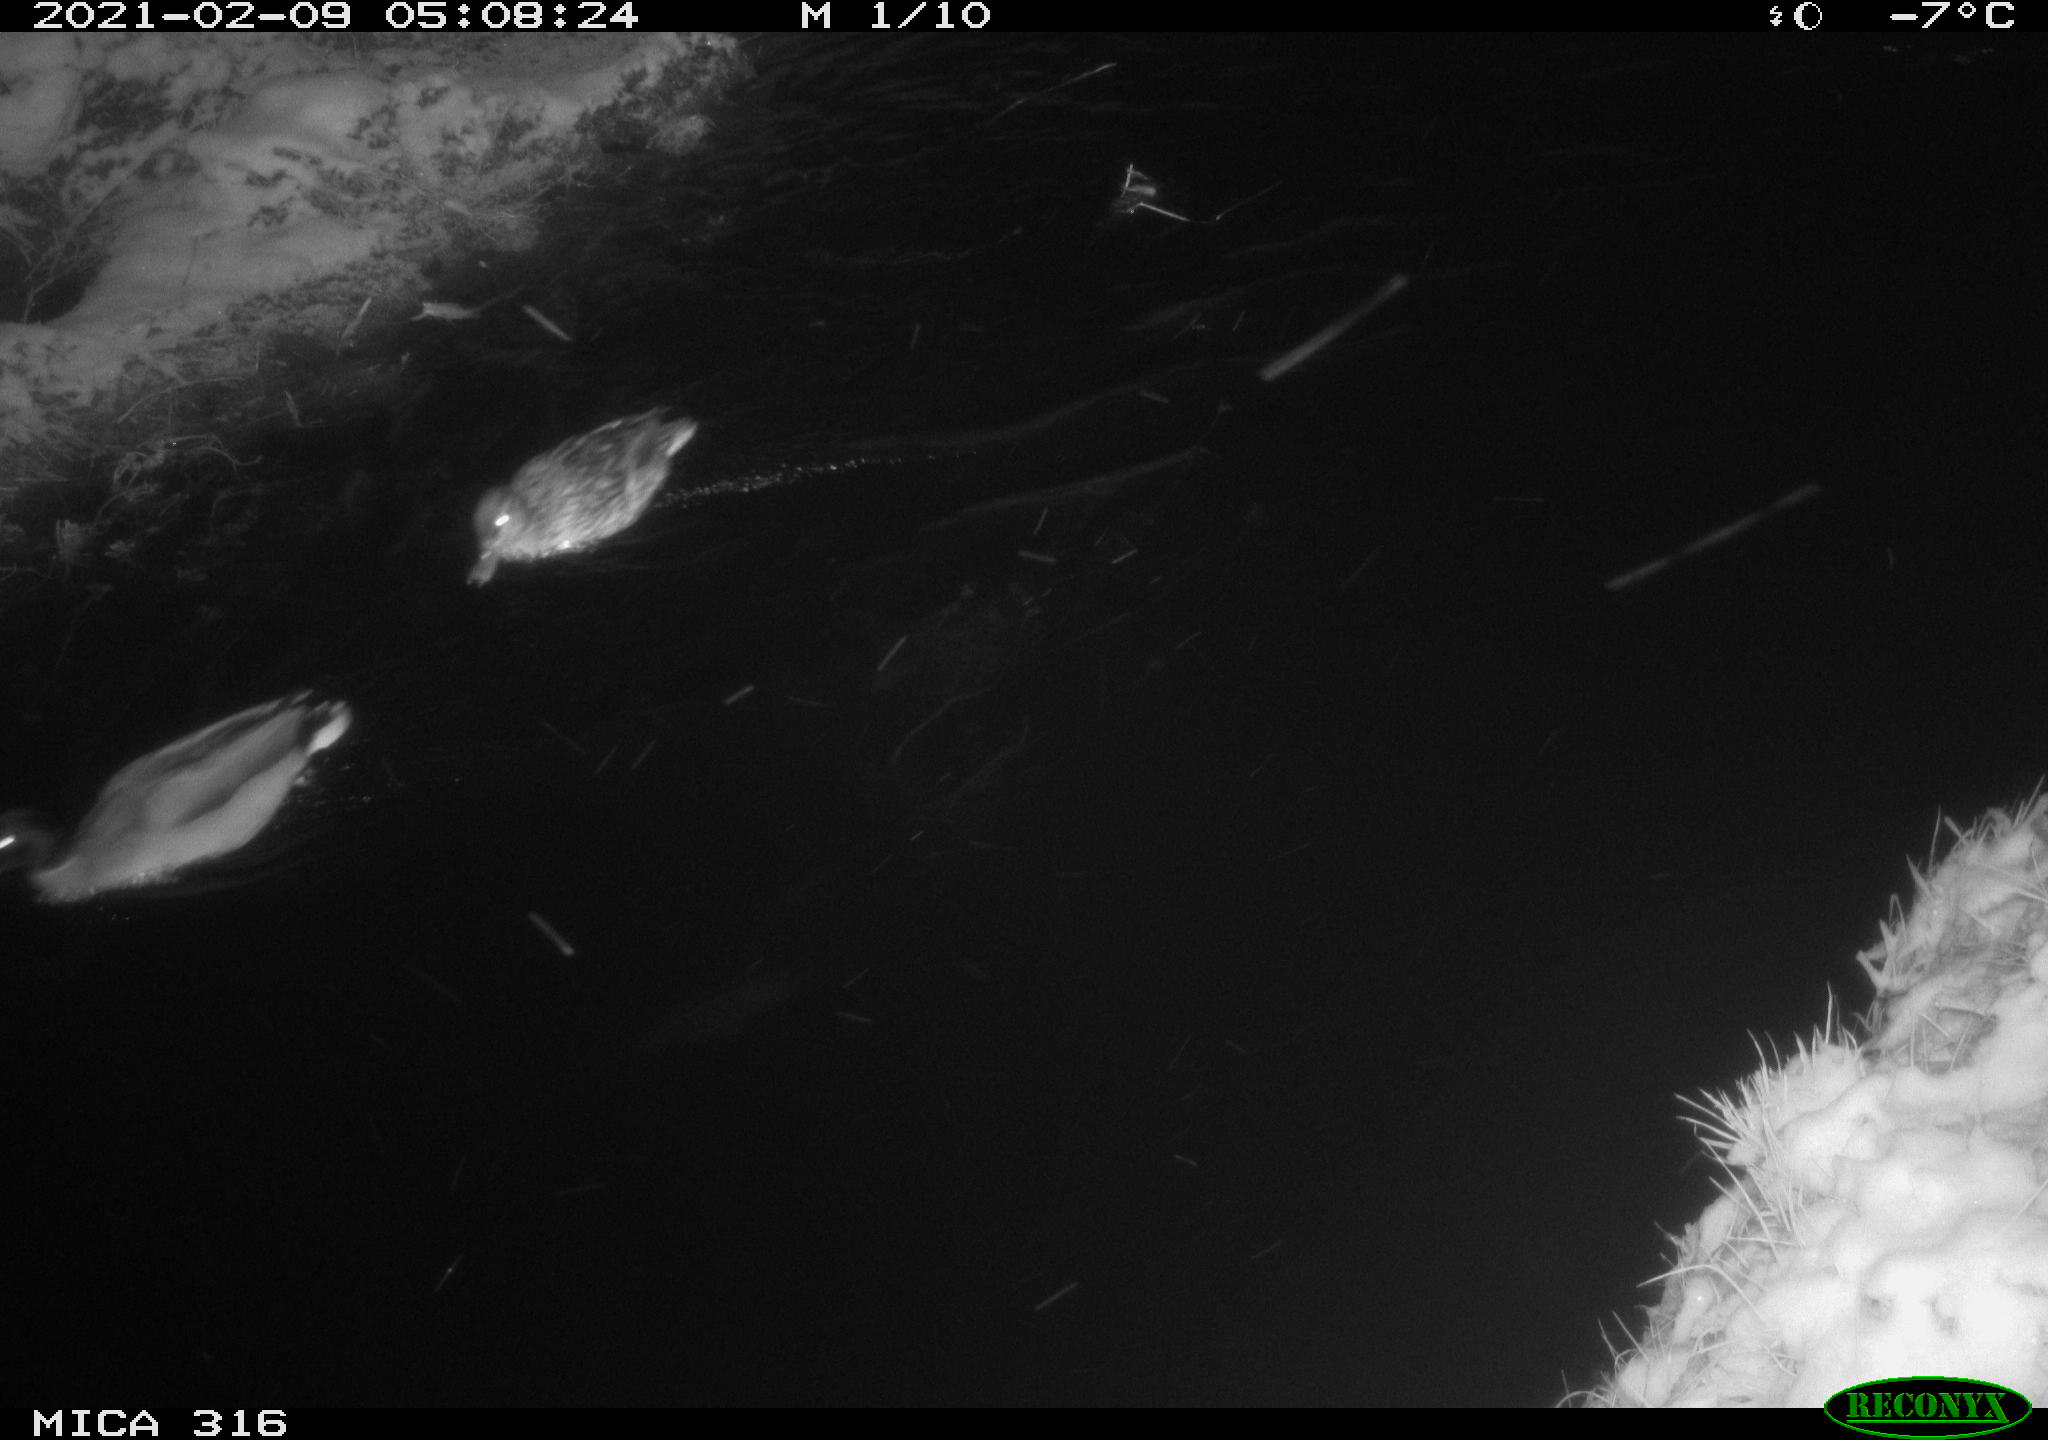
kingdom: Animalia
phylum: Chordata
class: Aves
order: Anseriformes
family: Anatidae
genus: Anas
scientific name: Anas platyrhynchos
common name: Mallard
